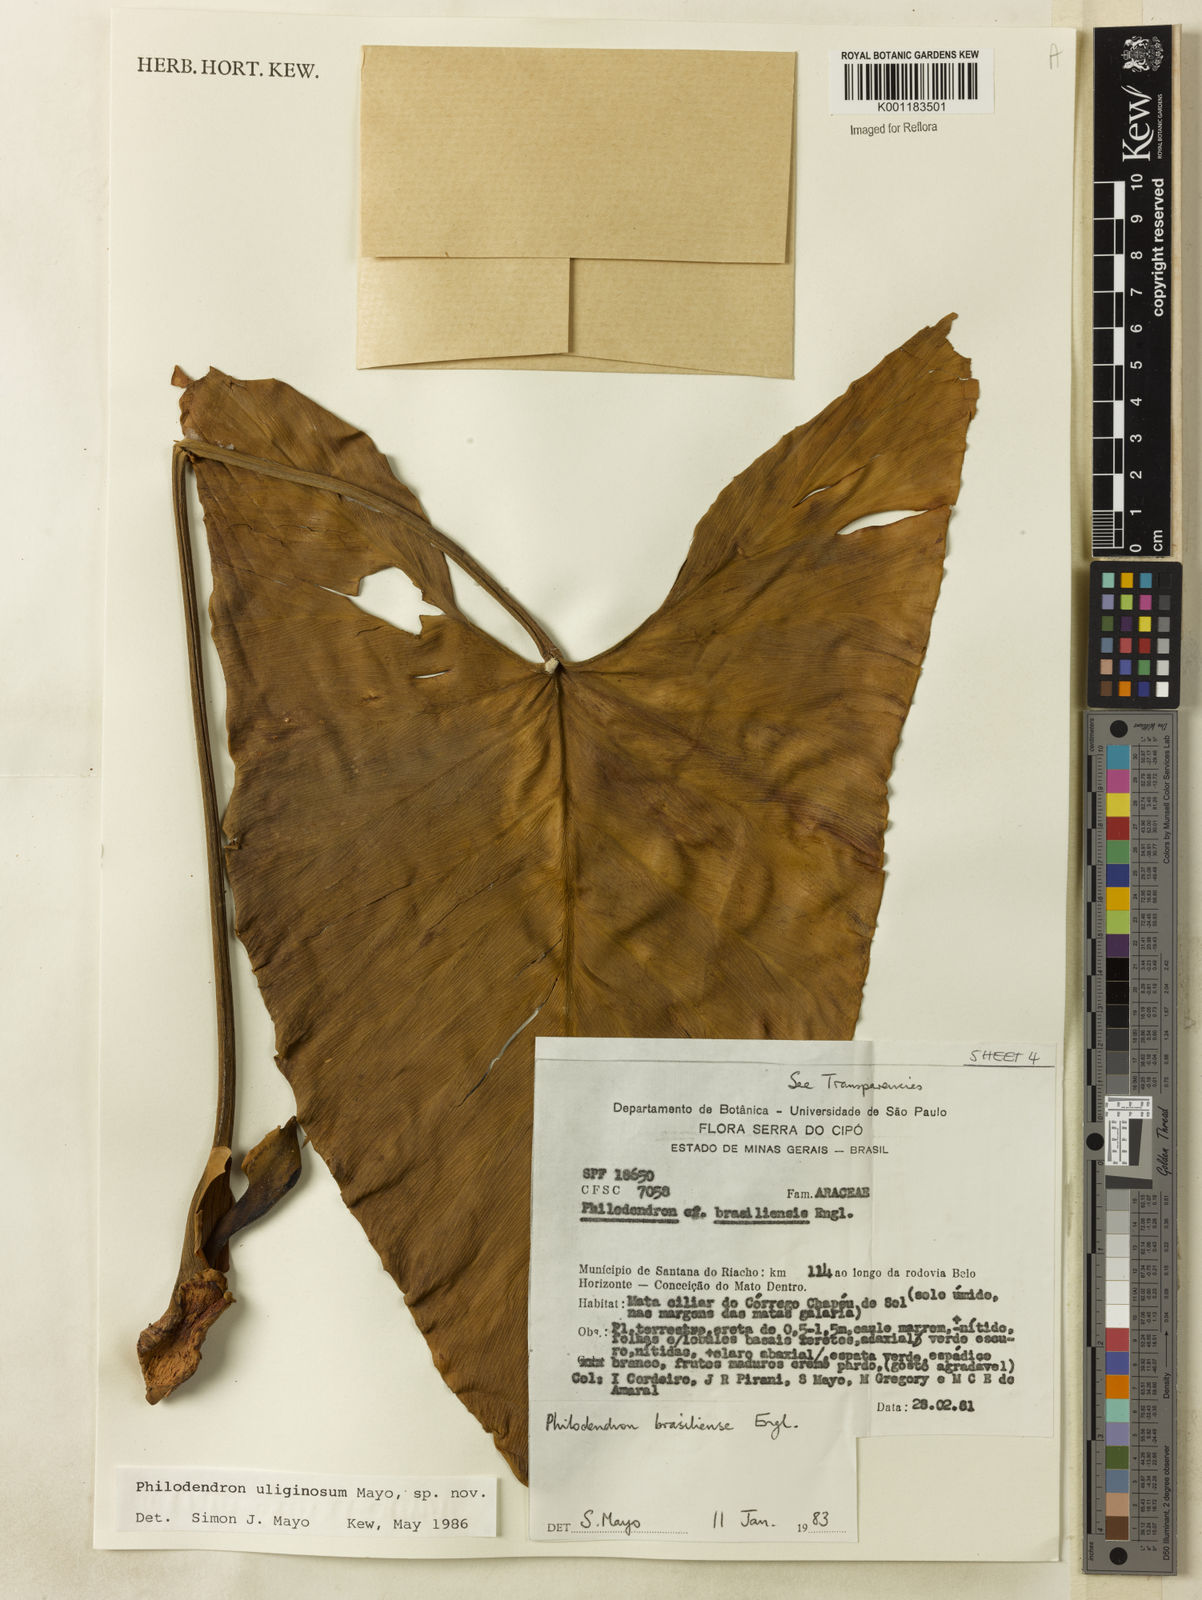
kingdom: Plantae
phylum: Tracheophyta
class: Liliopsida
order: Alismatales
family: Araceae
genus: Thaumatophyllum
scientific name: Thaumatophyllum uliginosum
